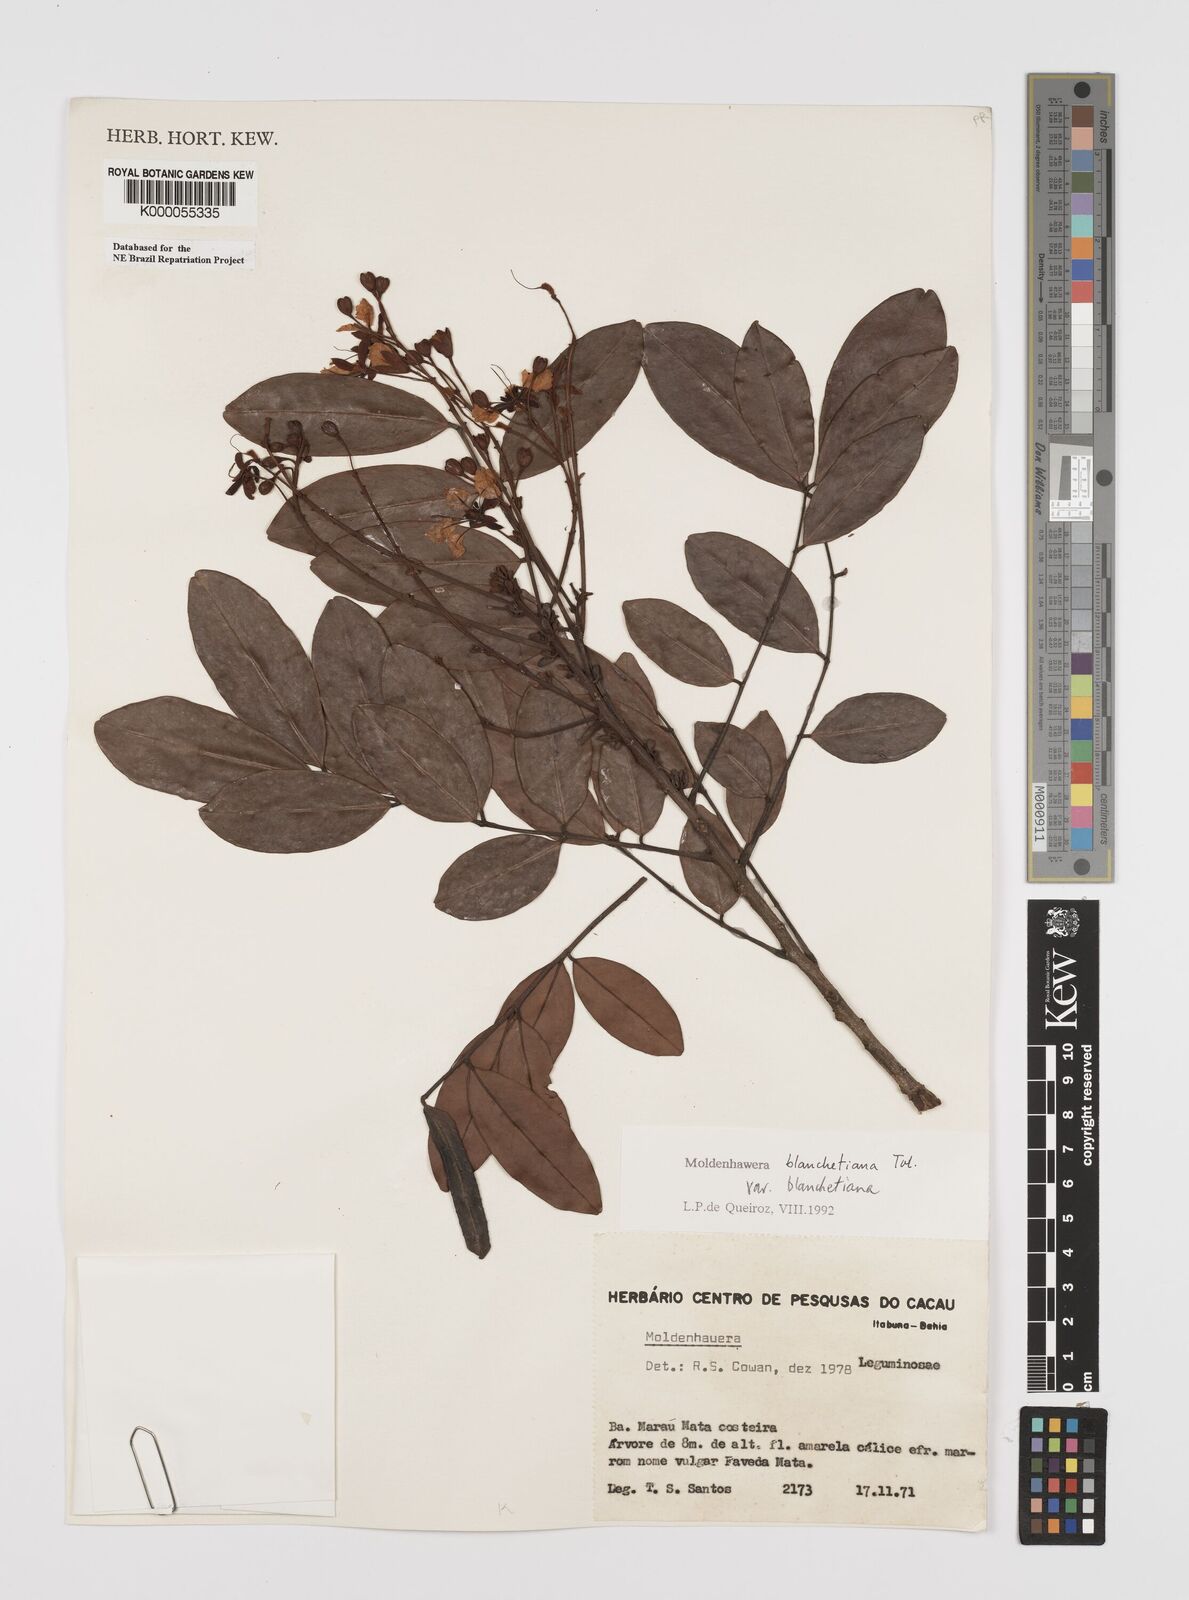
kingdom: Plantae
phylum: Tracheophyta
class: Magnoliopsida
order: Fabales
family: Fabaceae
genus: Moldenhawera
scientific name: Moldenhawera blanchetiana
